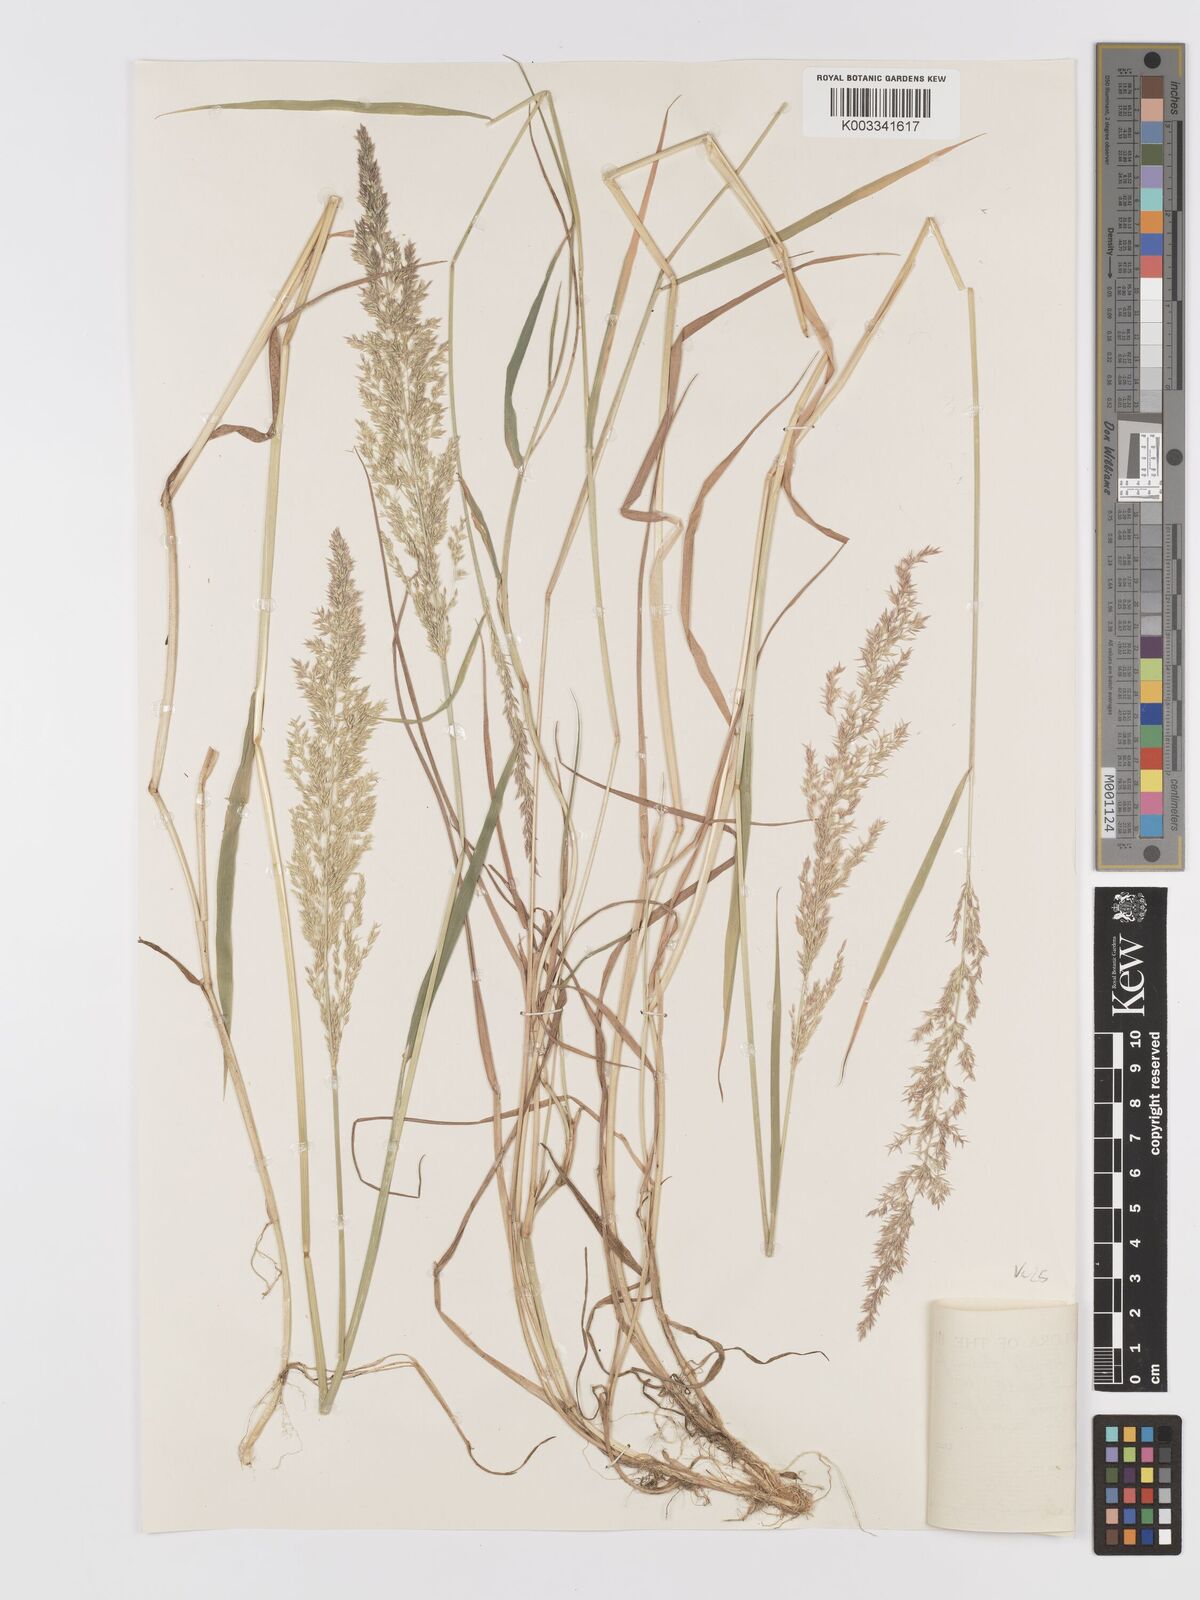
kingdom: Plantae
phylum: Tracheophyta
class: Liliopsida
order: Poales
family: Poaceae
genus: Agrostis
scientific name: Agrostis stolonifera
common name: Creeping bentgrass
